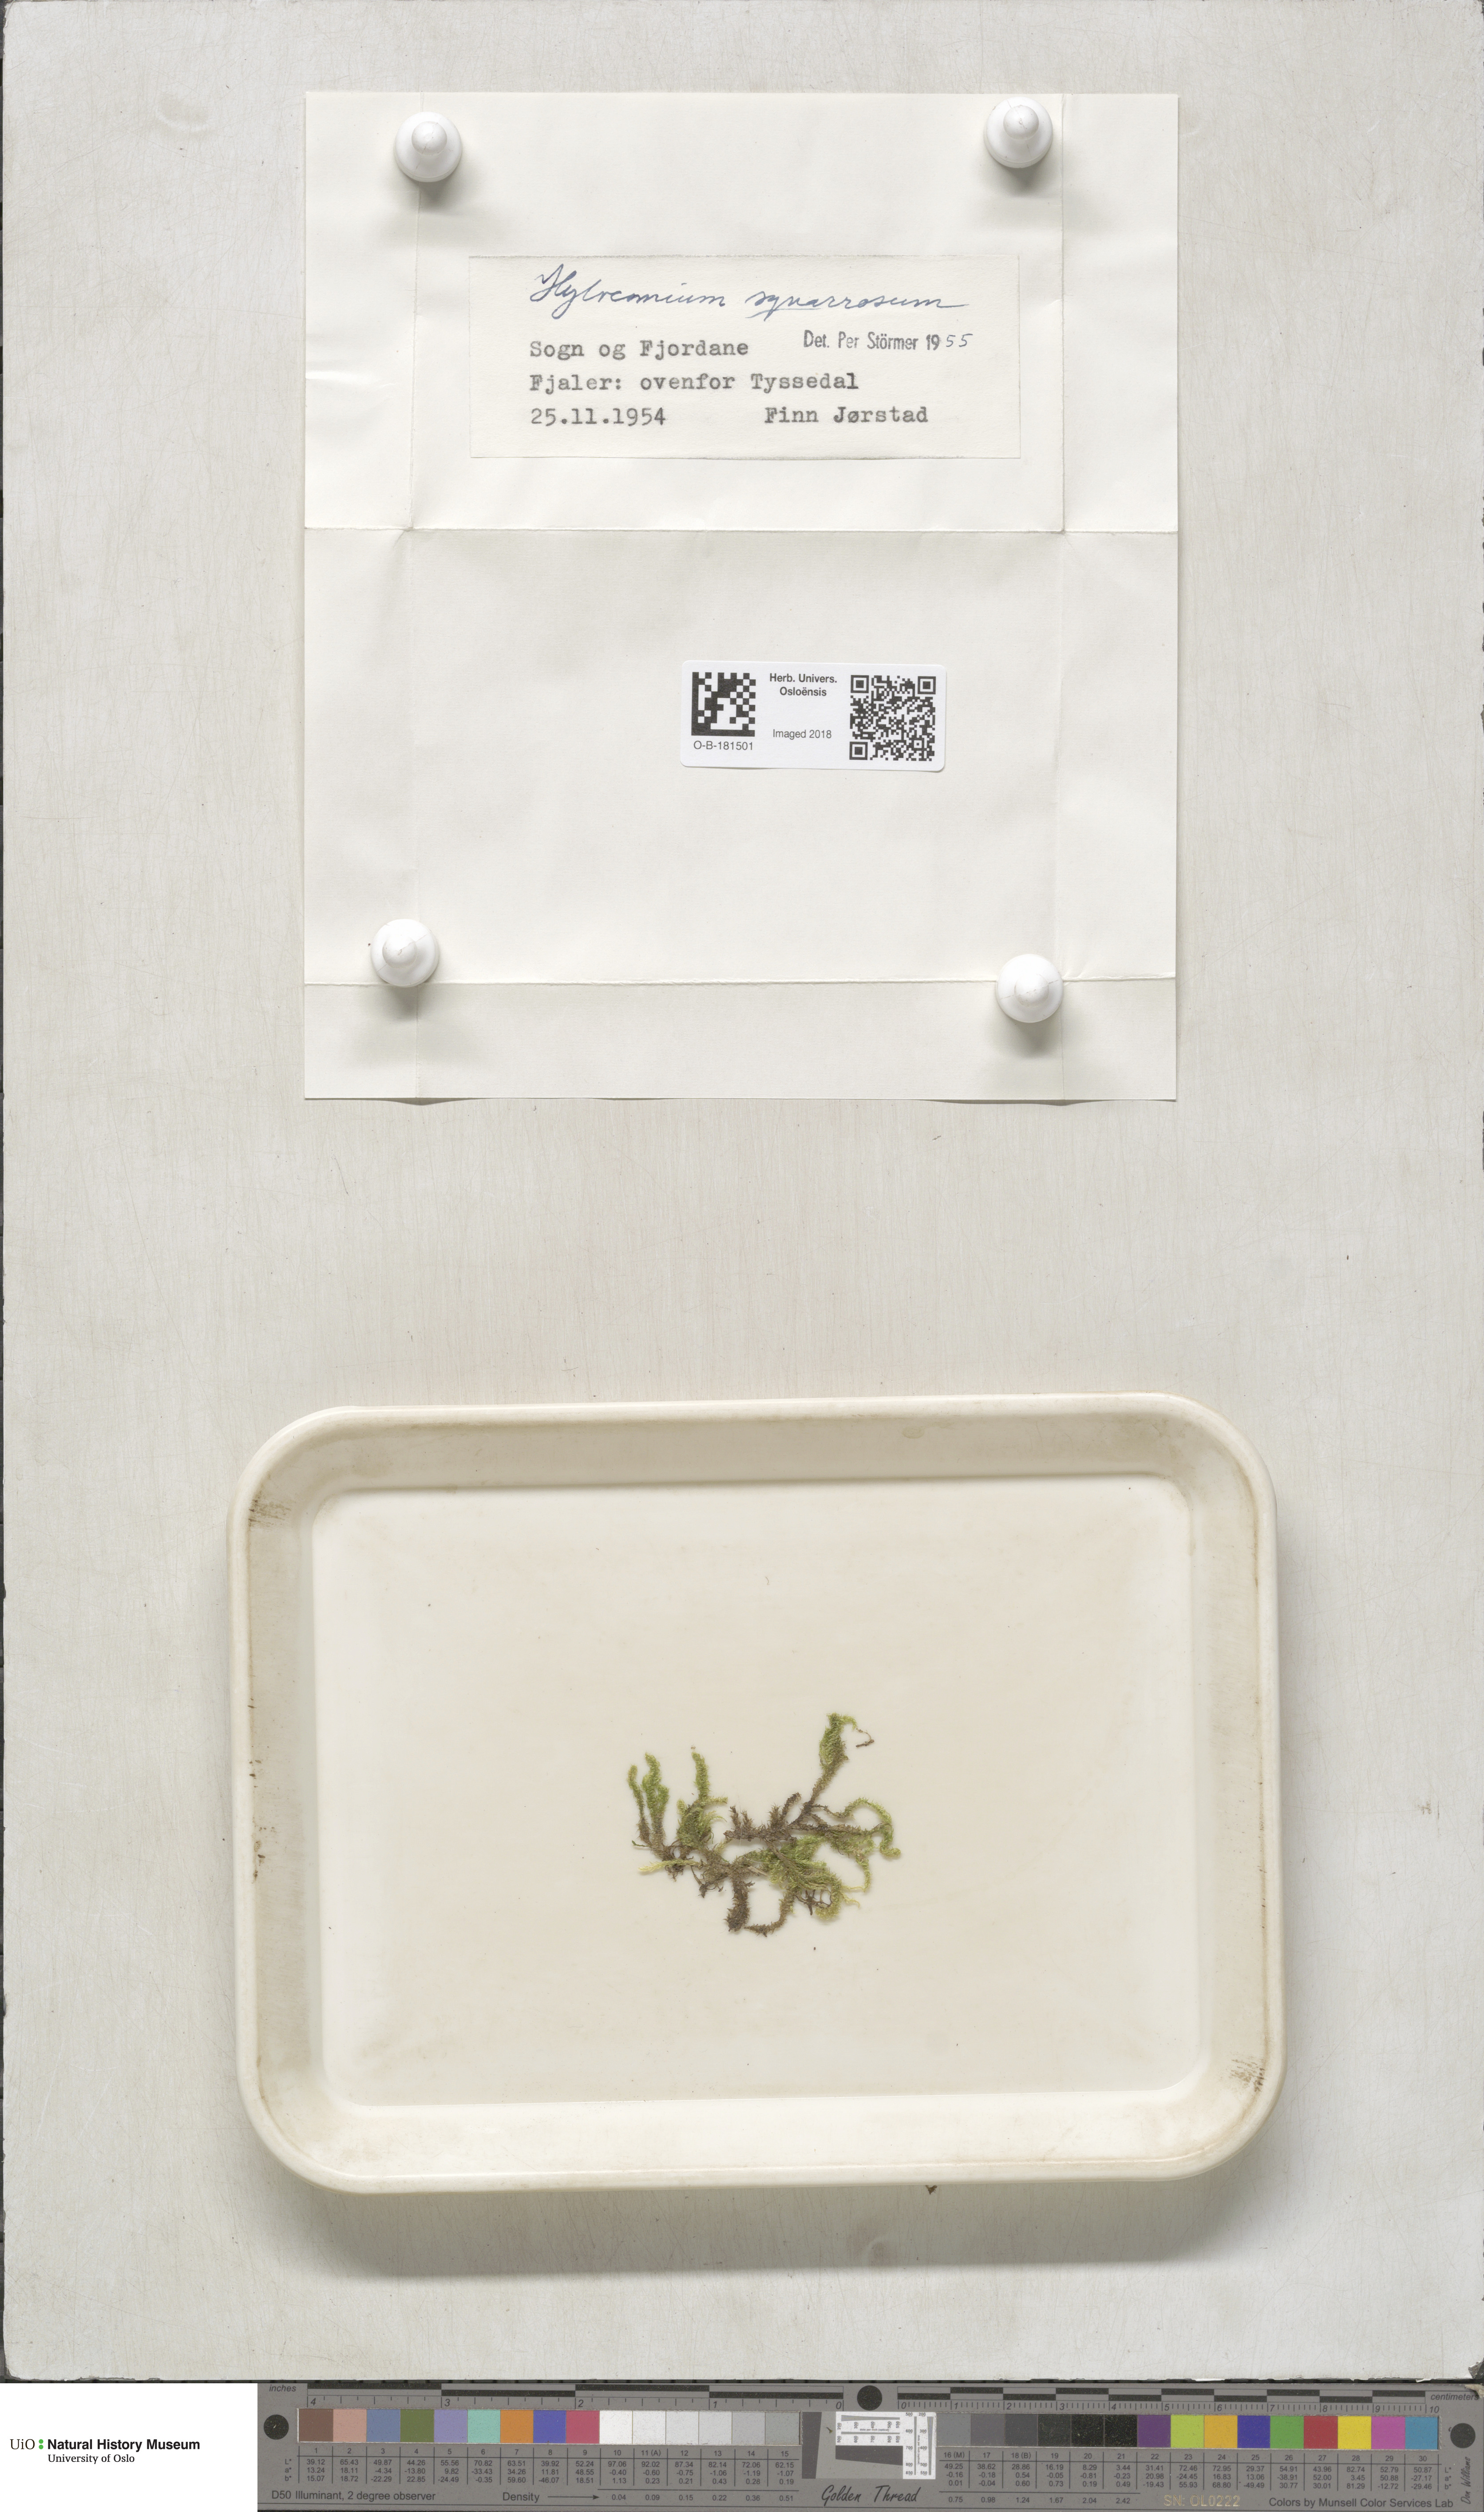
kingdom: Plantae
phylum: Bryophyta
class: Bryopsida
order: Hypnales
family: Hylocomiaceae
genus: Rhytidiadelphus
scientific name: Rhytidiadelphus squarrosus
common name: Springy turf-moss
